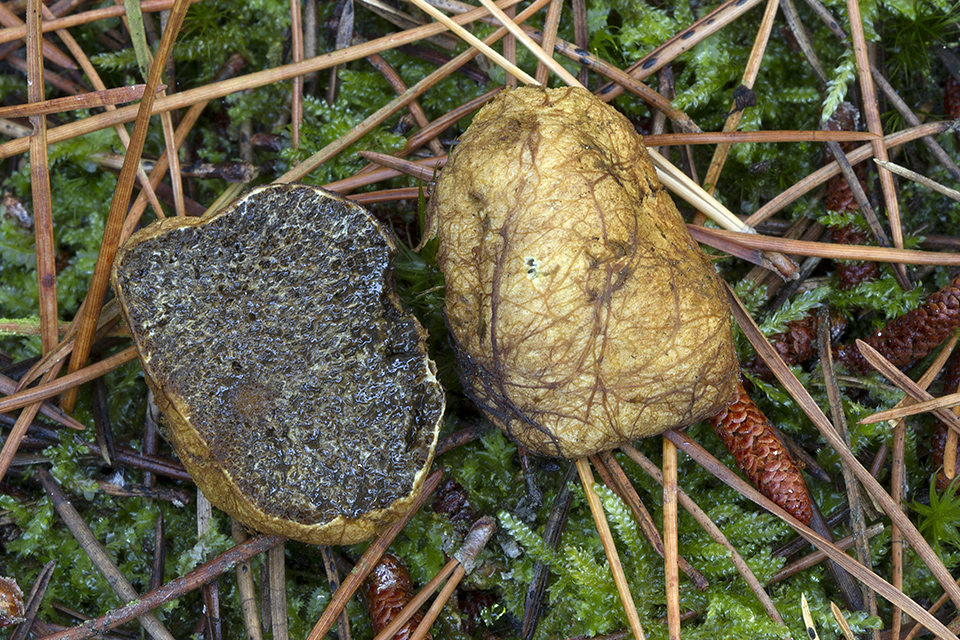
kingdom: Fungi
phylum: Basidiomycota
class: Agaricomycetes
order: Boletales
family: Rhizopogonaceae
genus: Rhizopogon
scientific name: Rhizopogon obtextus
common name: gul skægtrøffel
